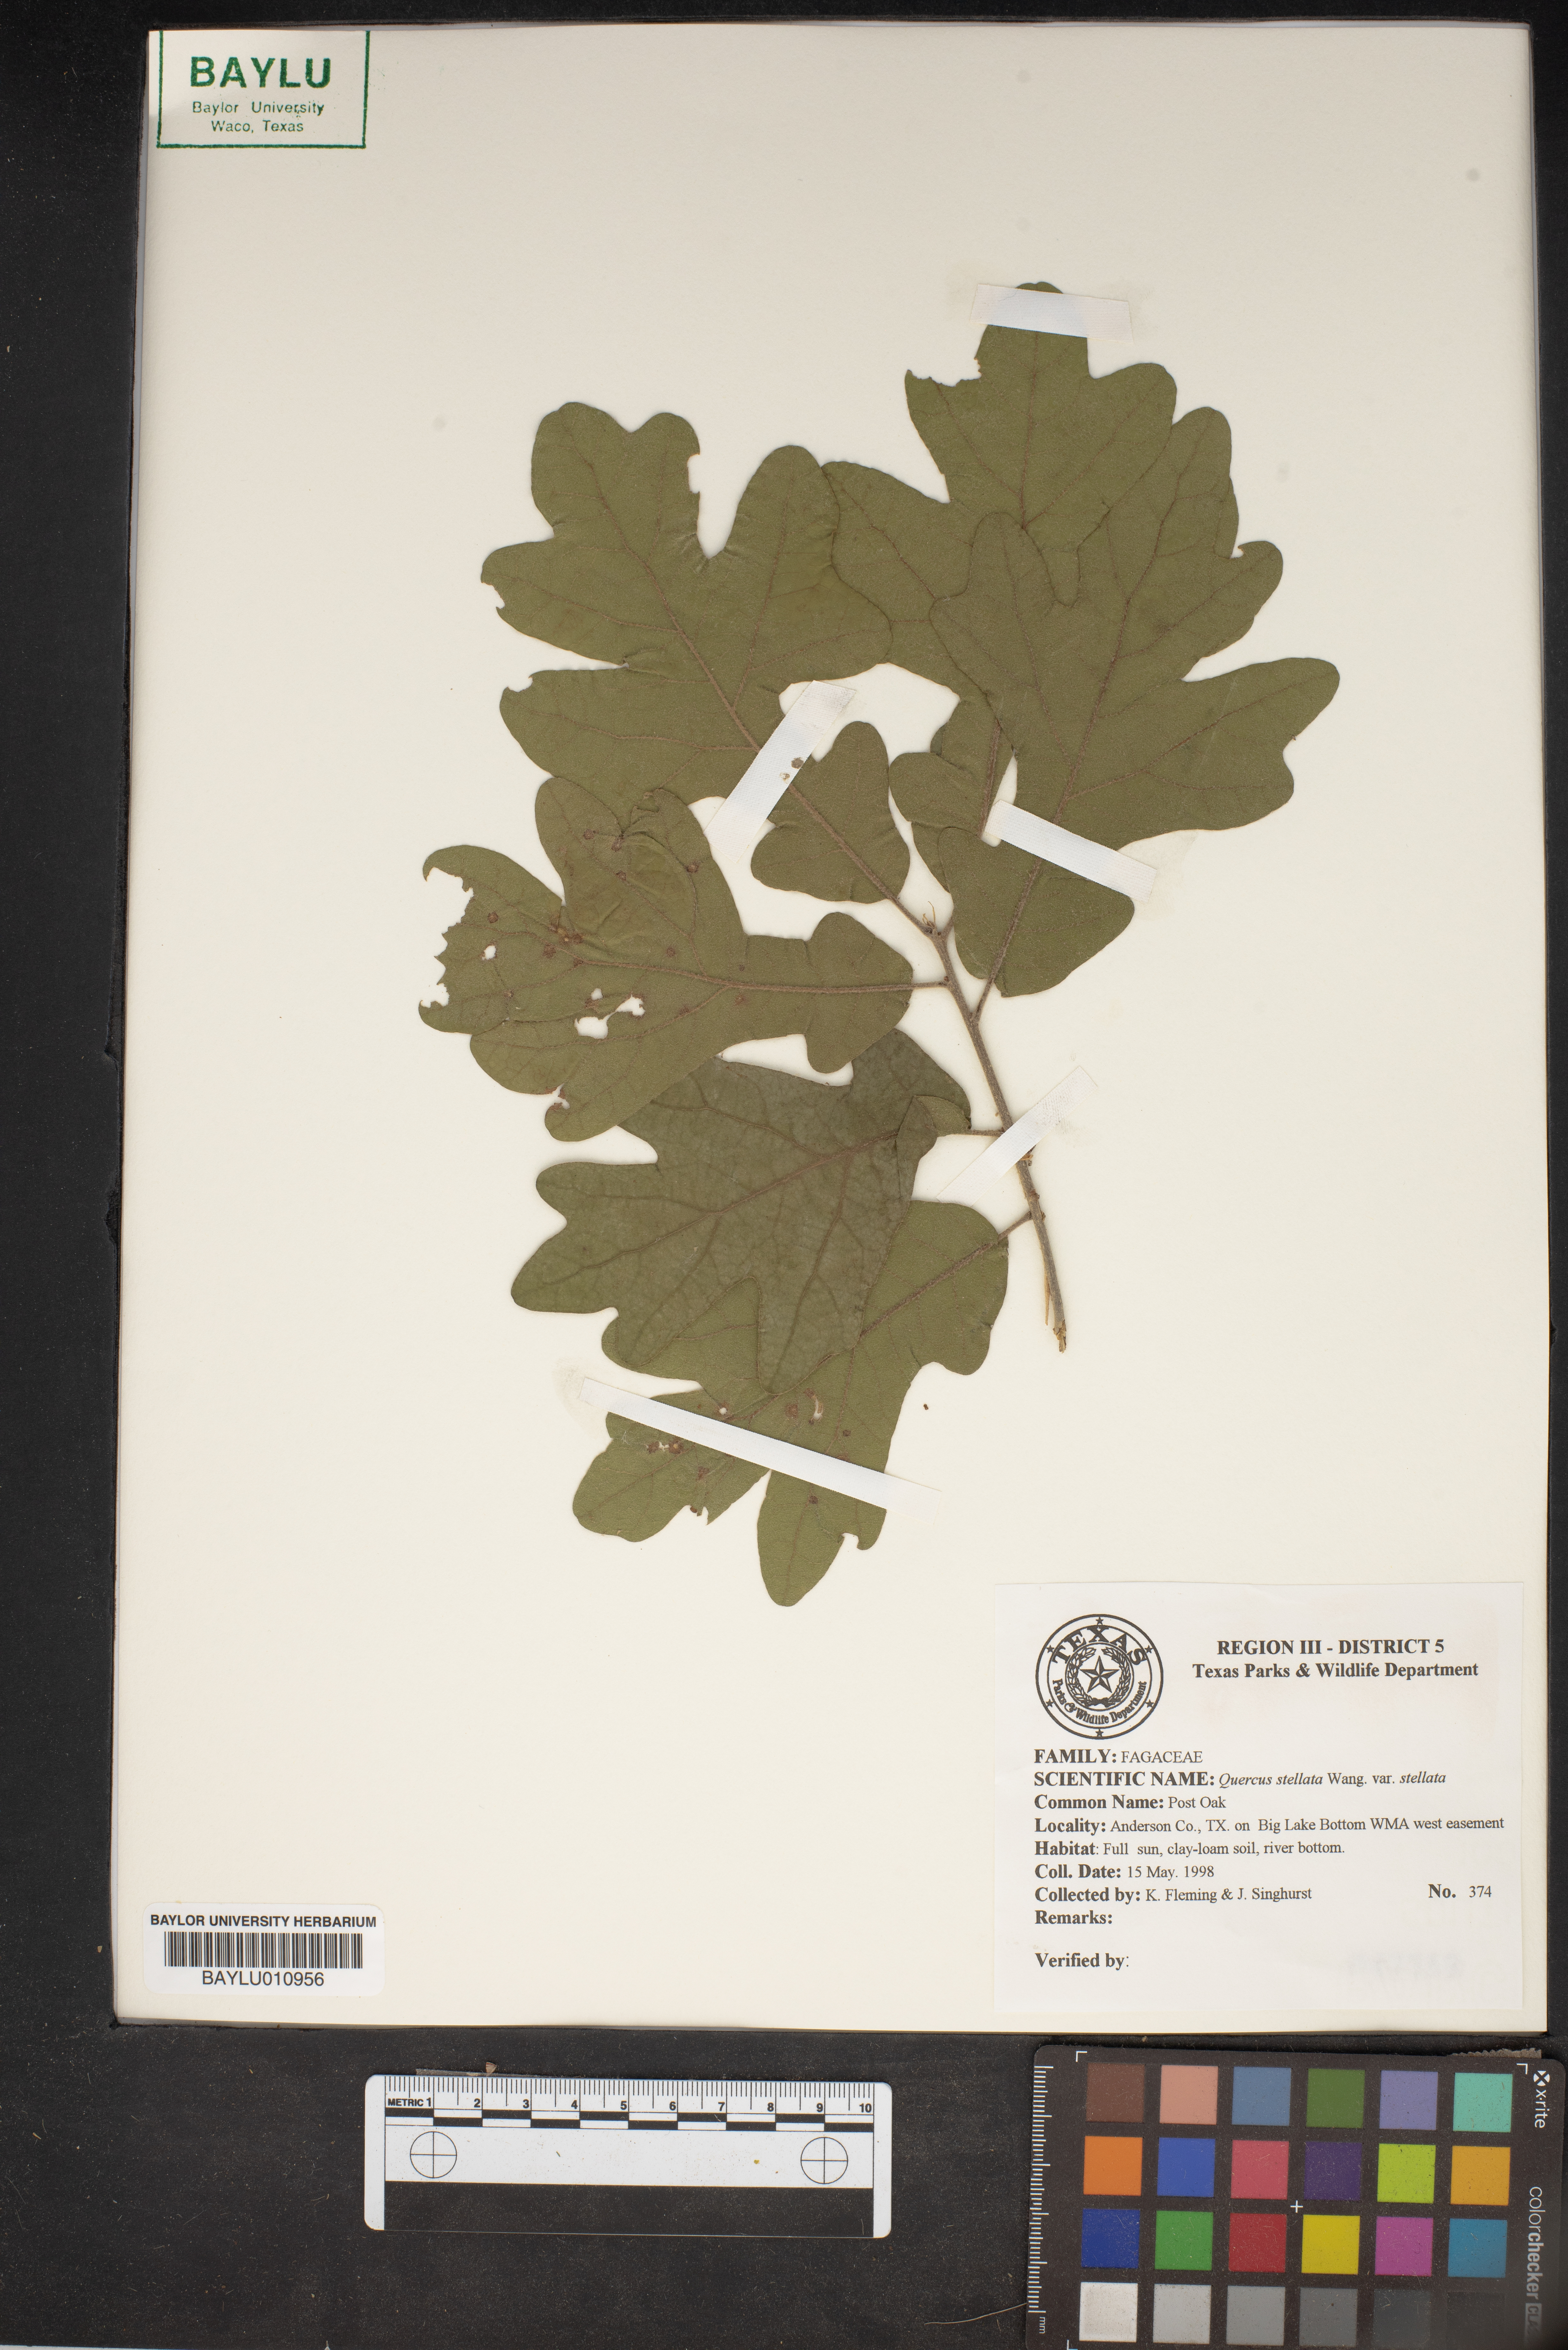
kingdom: Plantae
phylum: Tracheophyta
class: Magnoliopsida
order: Fagales
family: Fagaceae
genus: Quercus
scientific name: Quercus stellata
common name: Post oak
